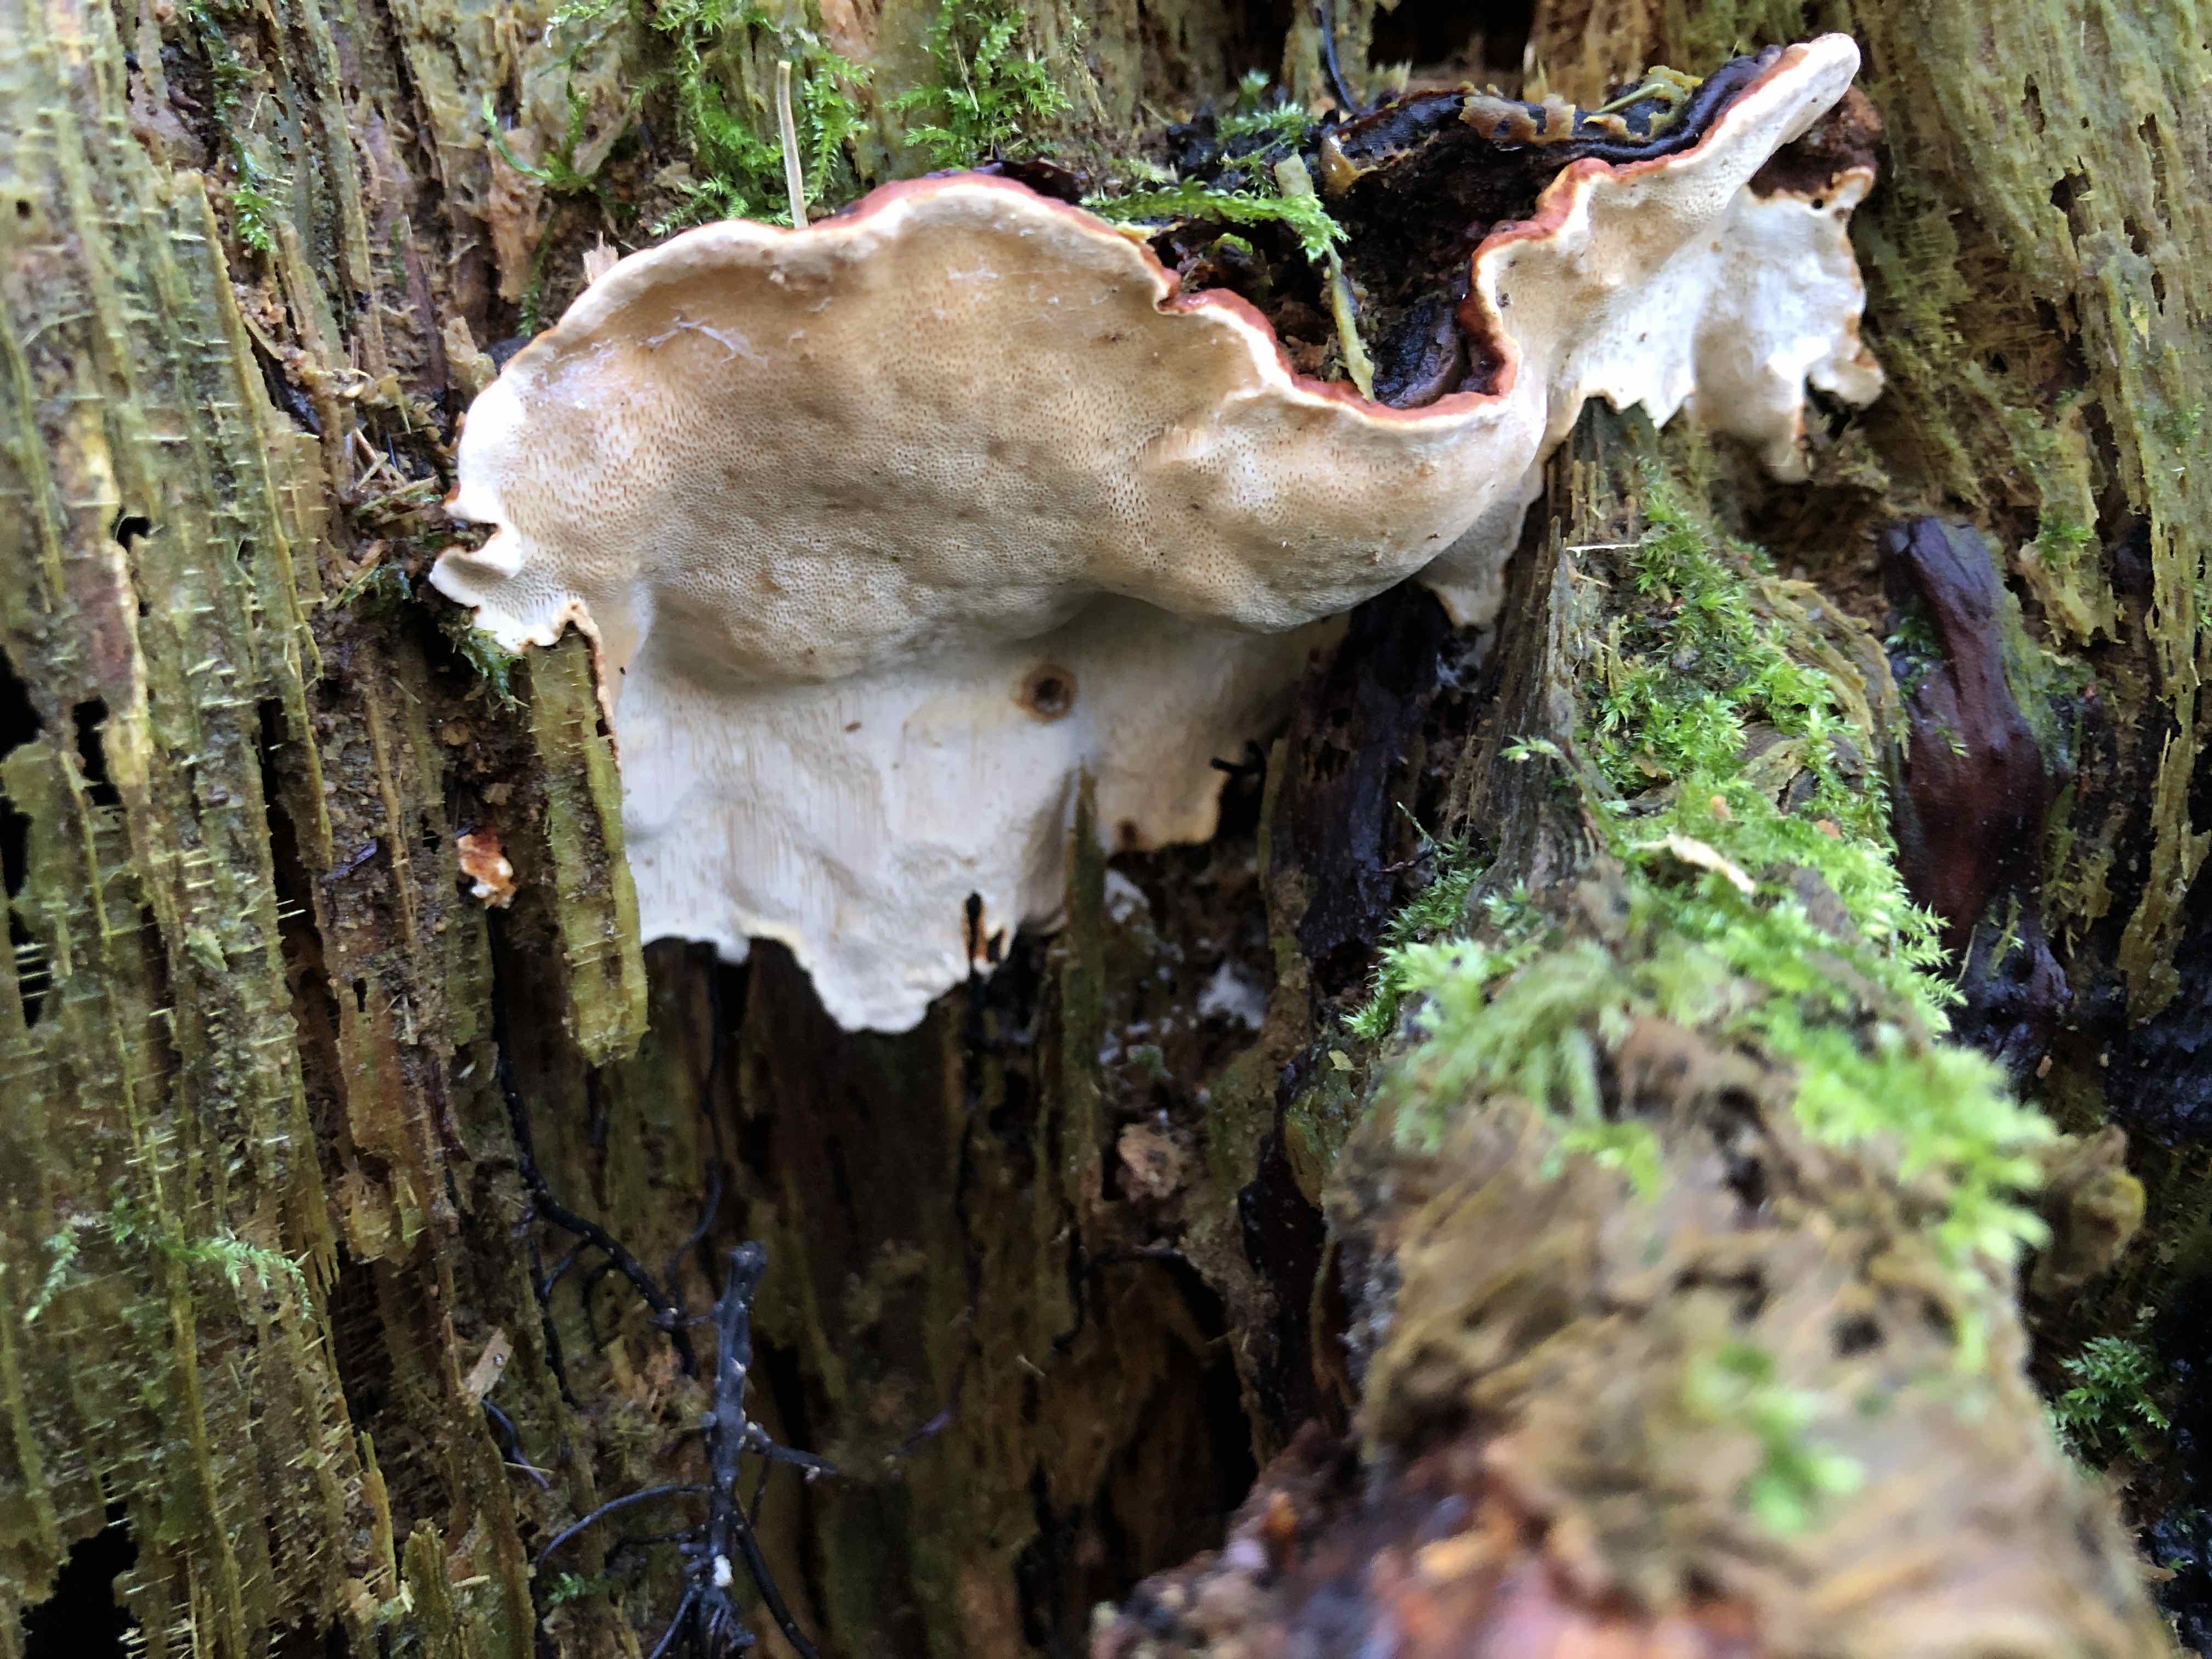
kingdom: Fungi
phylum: Basidiomycota
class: Agaricomycetes
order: Russulales
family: Bondarzewiaceae
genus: Heterobasidion
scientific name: Heterobasidion annosum
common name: almindelig rodfordærver
